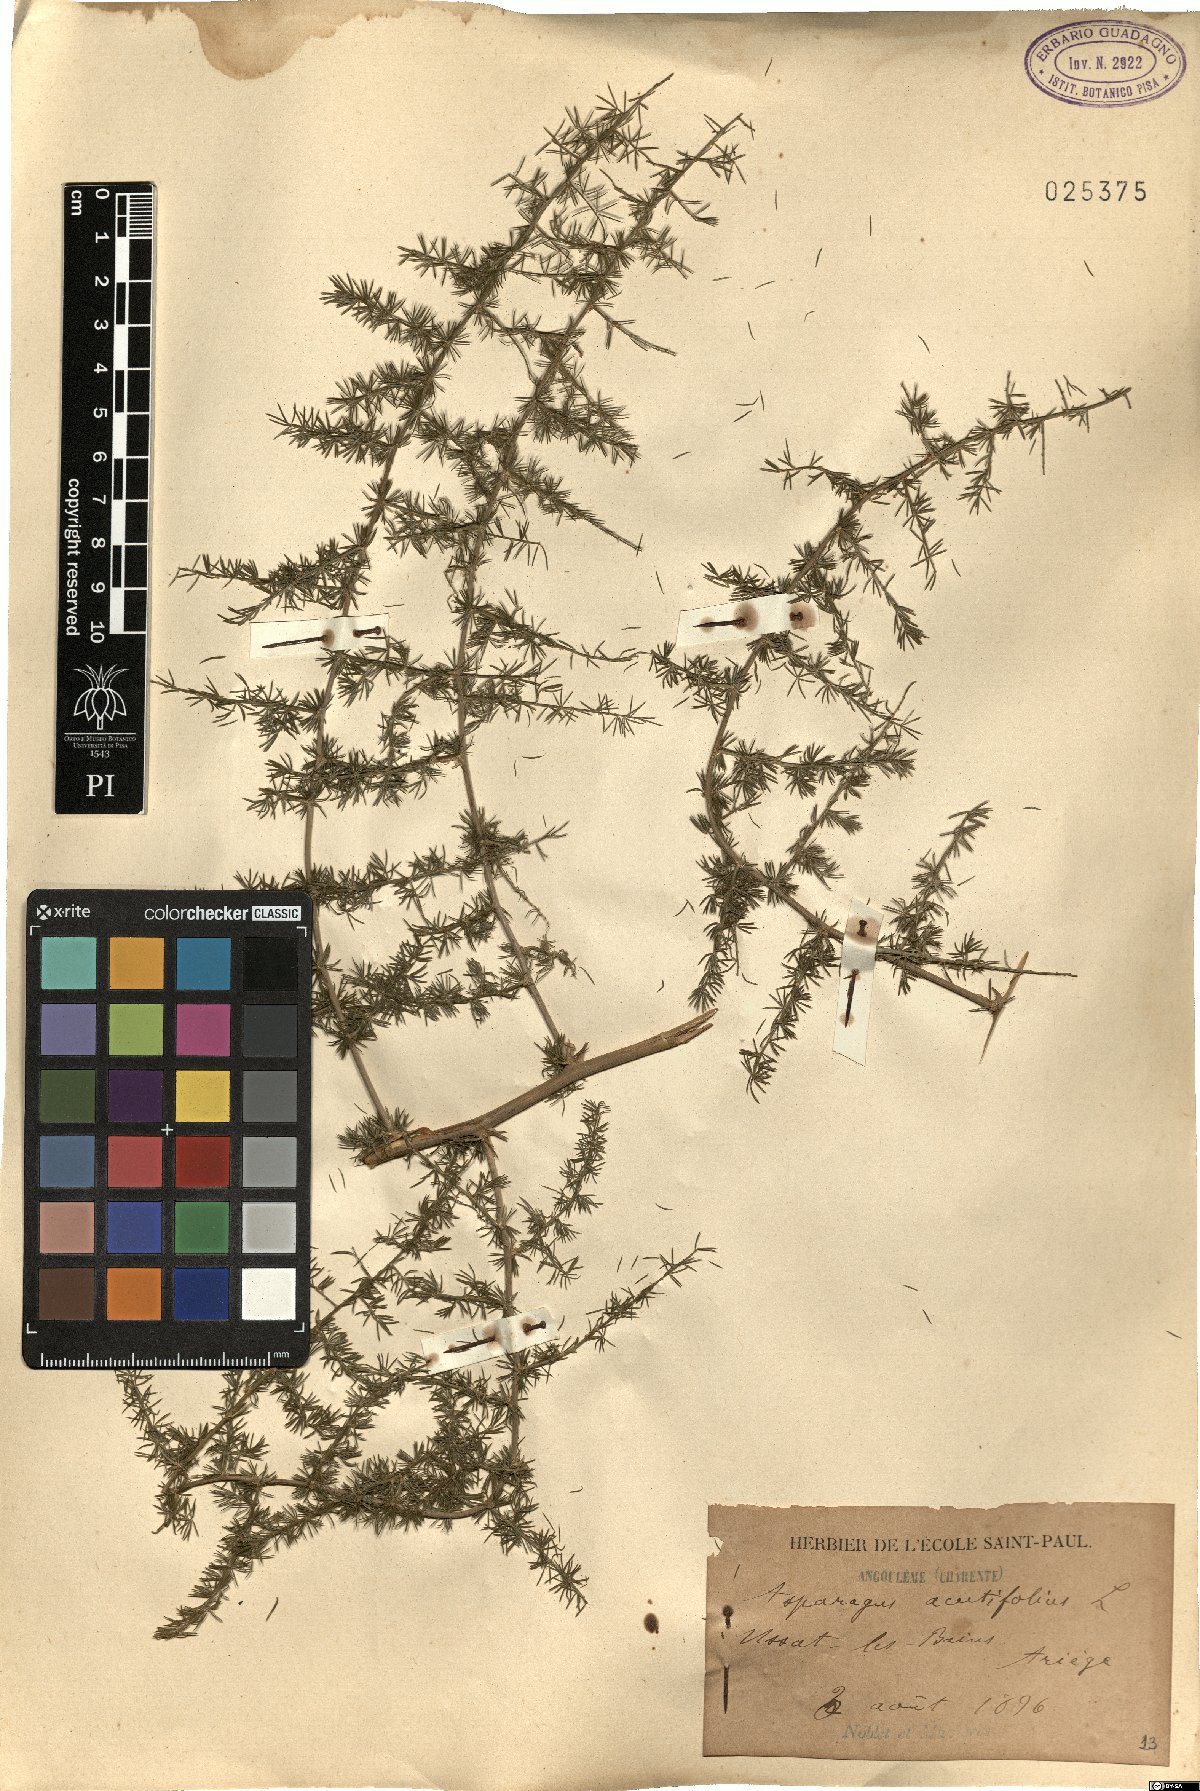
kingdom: Plantae
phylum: Tracheophyta
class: Liliopsida
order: Asparagales
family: Asparagaceae
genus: Asparagus
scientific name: Asparagus acutifolius
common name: Wild asparagus
